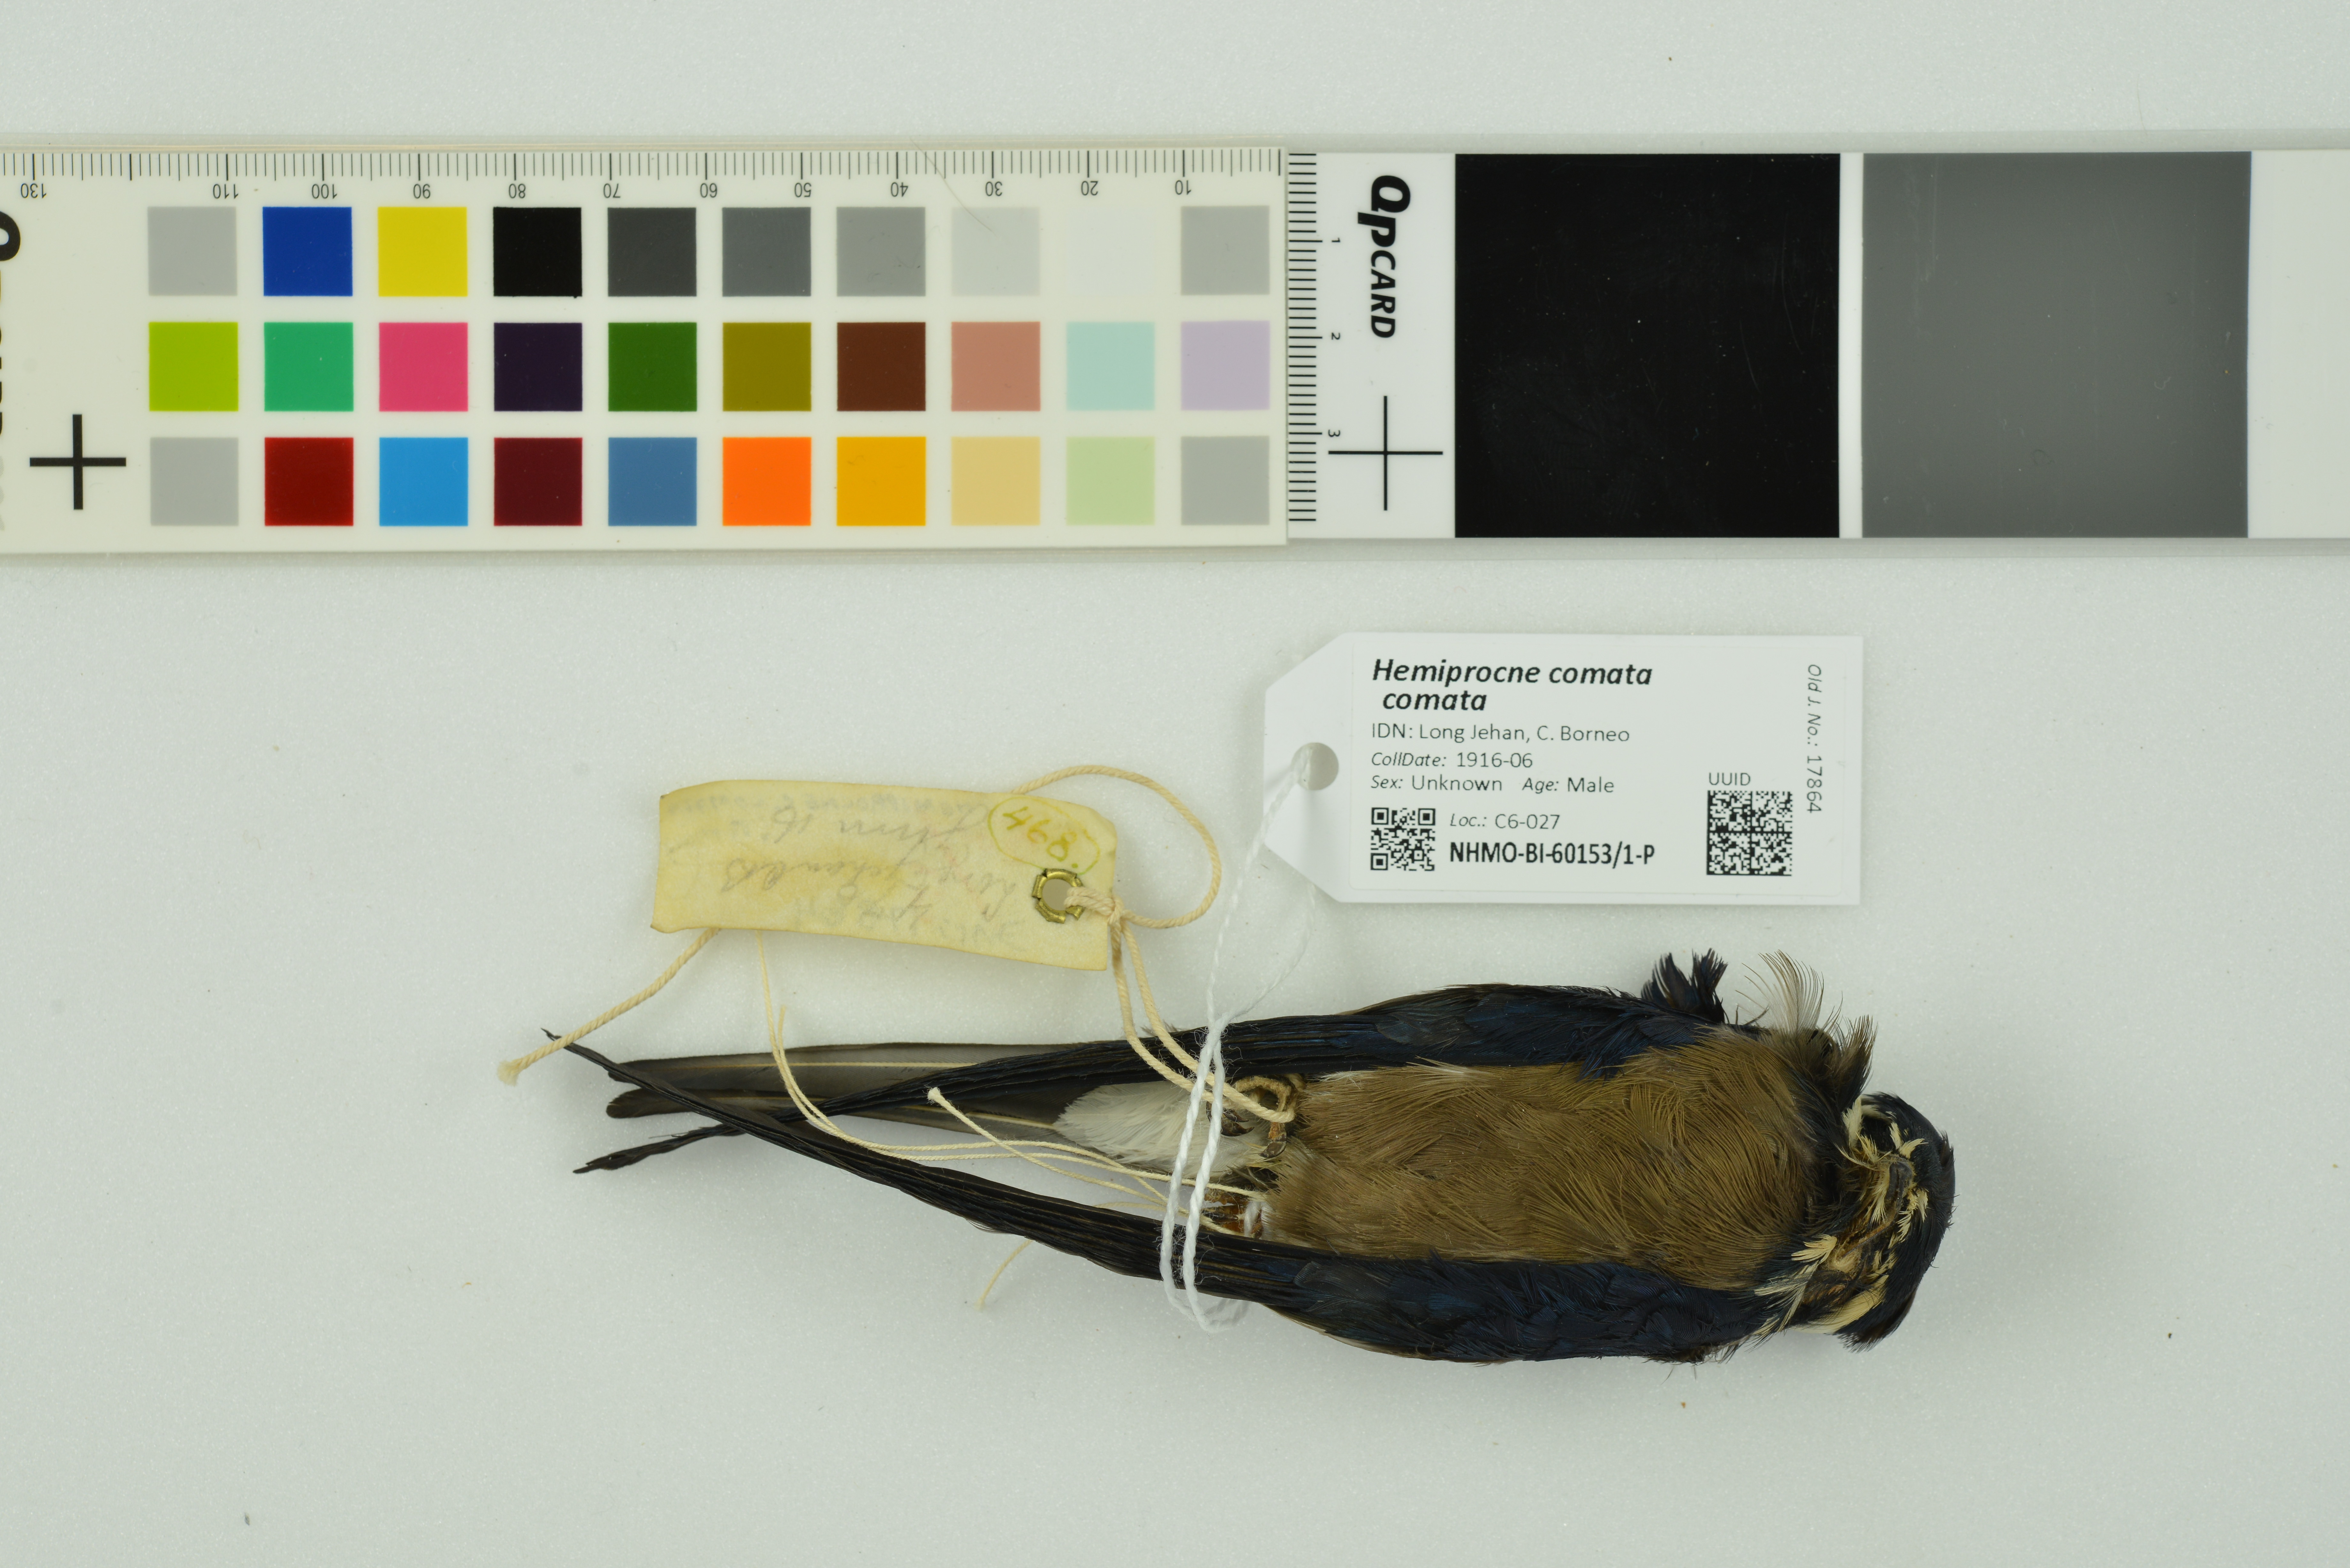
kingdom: Animalia
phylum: Chordata
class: Aves
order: Apodiformes
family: Hemiprocnidae
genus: Hemiprocne
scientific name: Hemiprocne comata
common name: Whiskered treeswift
